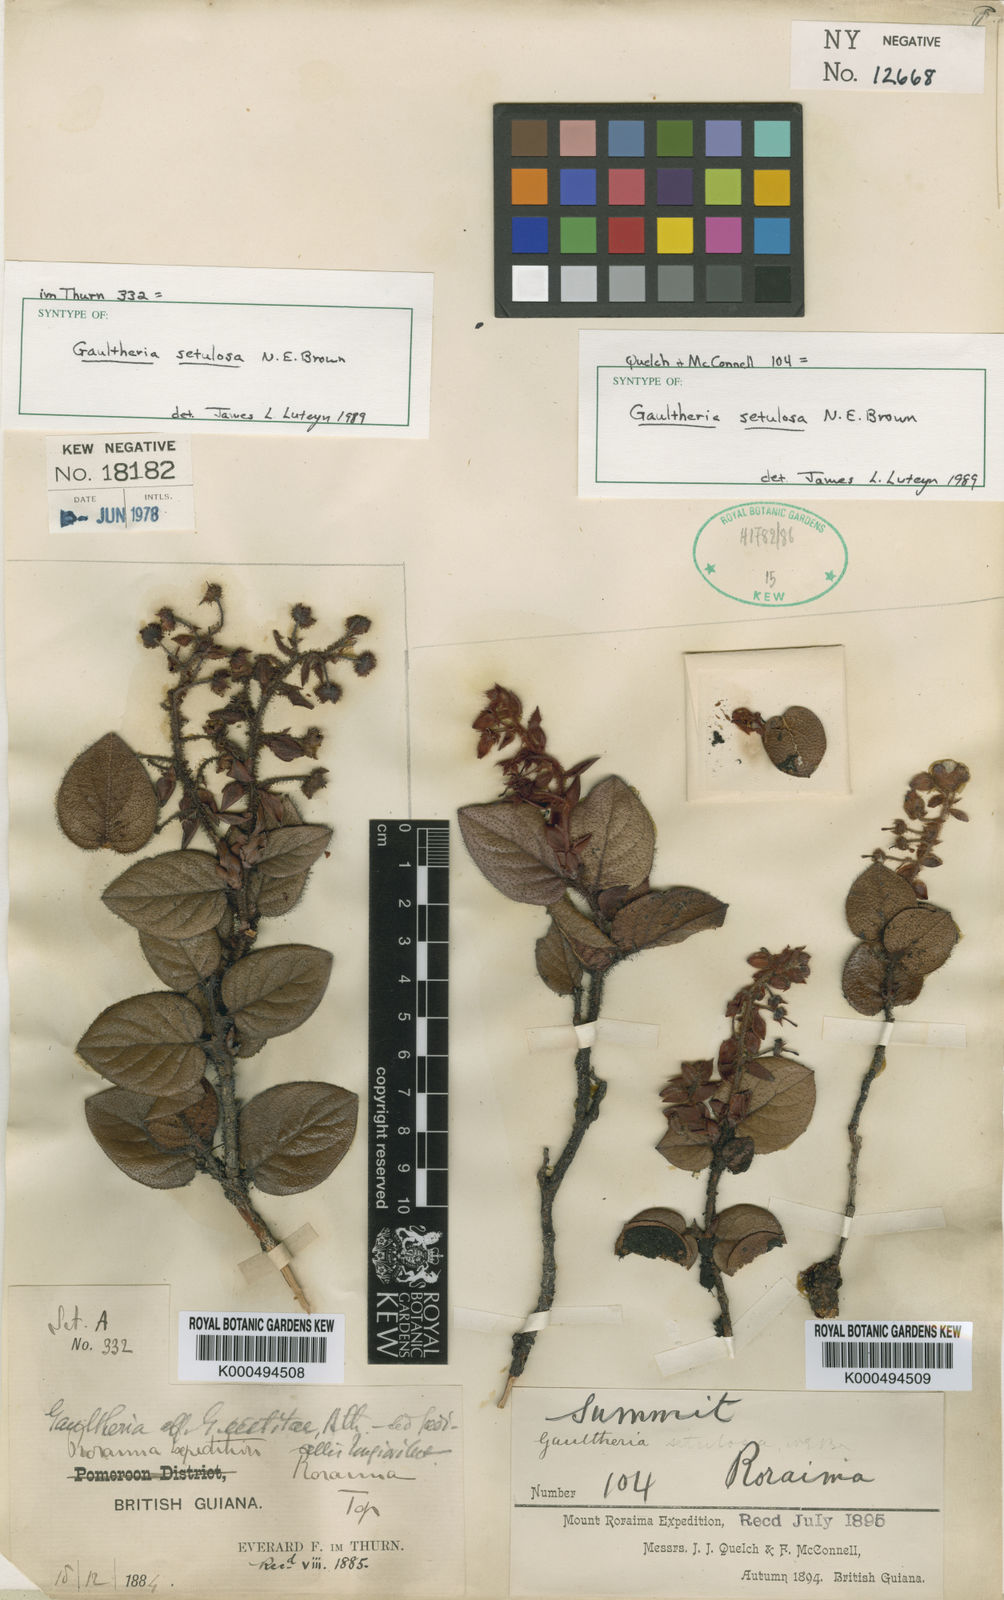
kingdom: Plantae
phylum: Tracheophyta
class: Magnoliopsida
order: Ericales
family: Ericaceae
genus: Gaultheria
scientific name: Gaultheria setulosa
